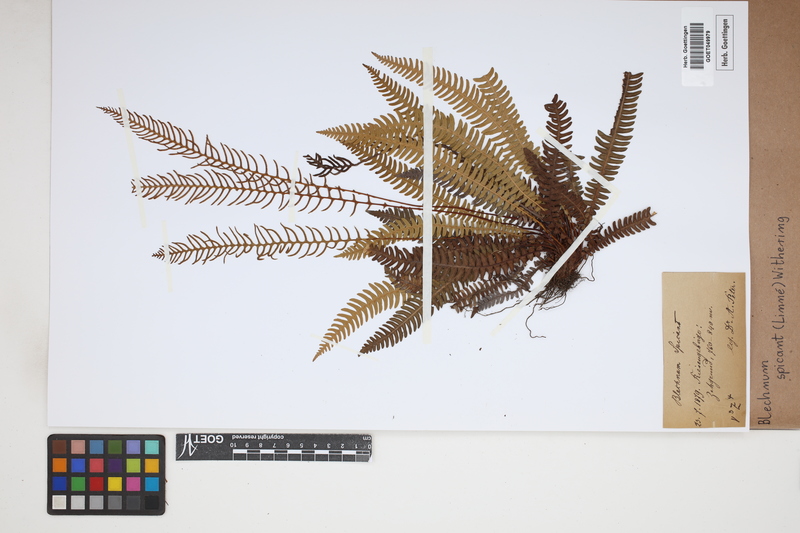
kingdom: Plantae
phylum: Tracheophyta
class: Polypodiopsida
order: Polypodiales
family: Blechnaceae
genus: Struthiopteris
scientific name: Struthiopteris spicant
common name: Deer fern
